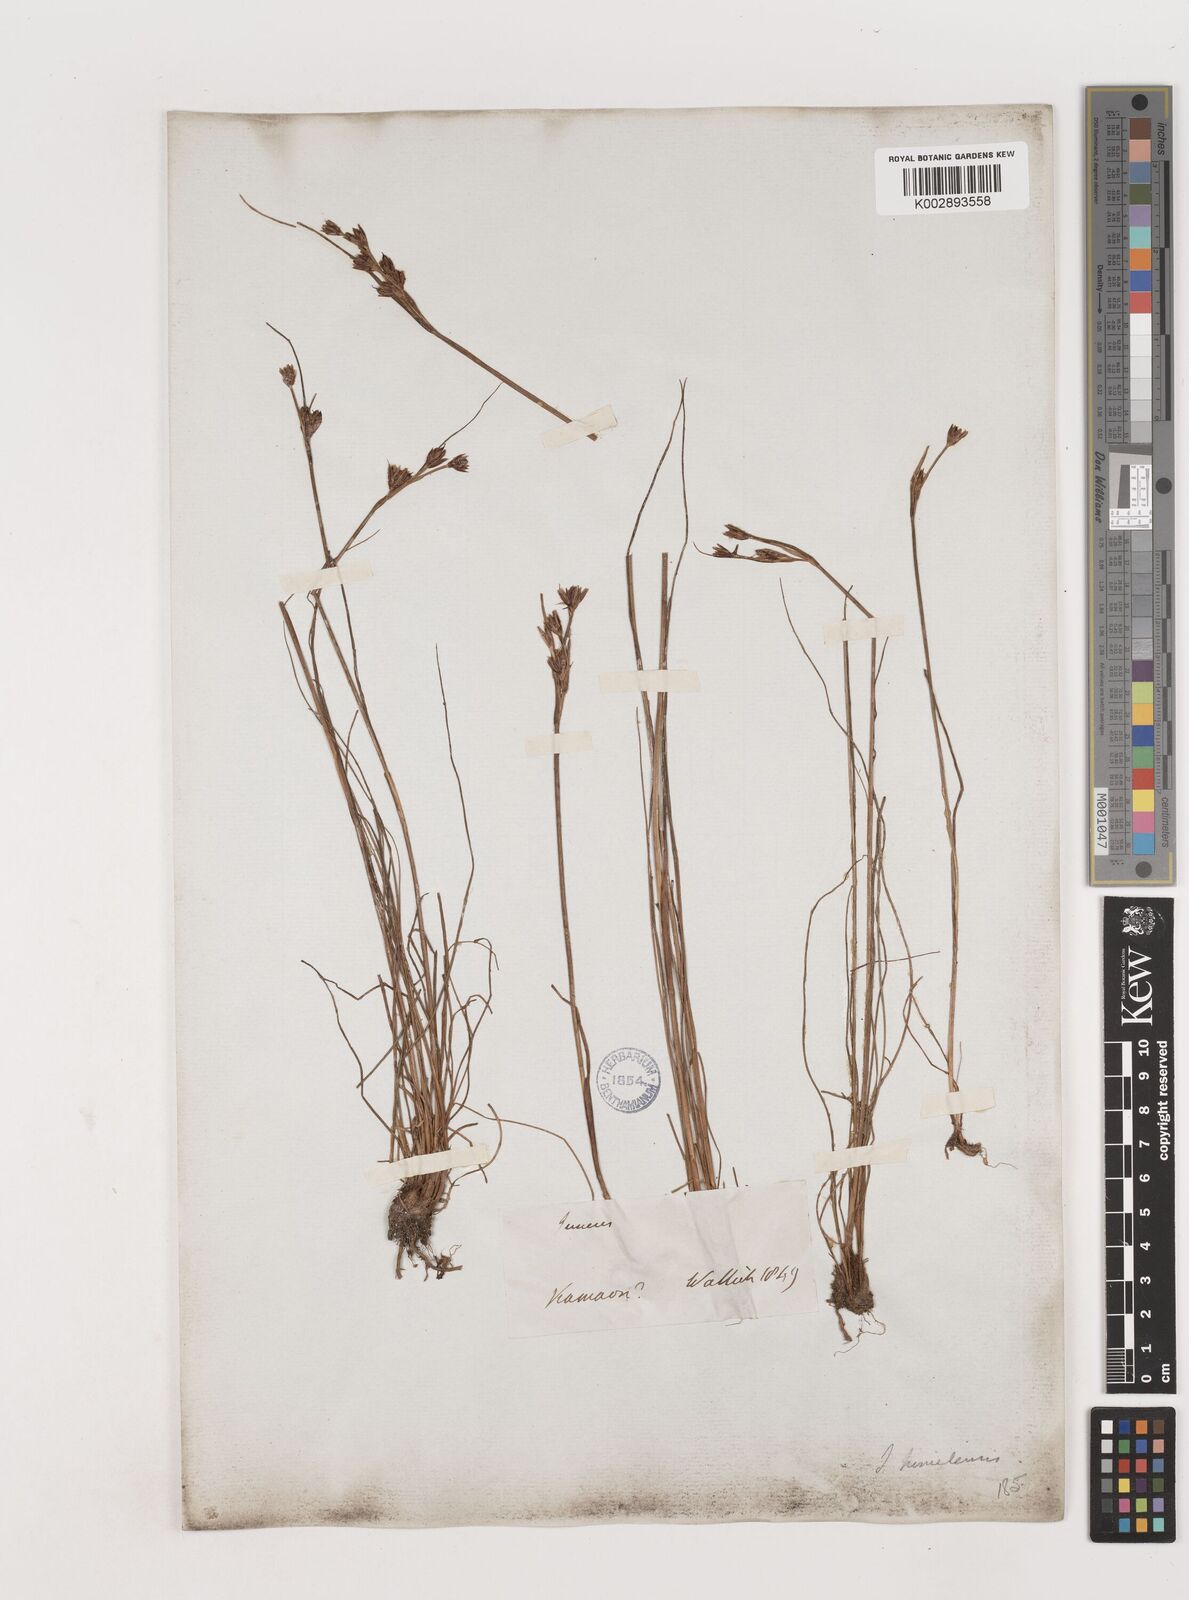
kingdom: Plantae
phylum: Tracheophyta
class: Liliopsida
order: Poales
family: Juncaceae
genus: Juncus
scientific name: Juncus himalensis
